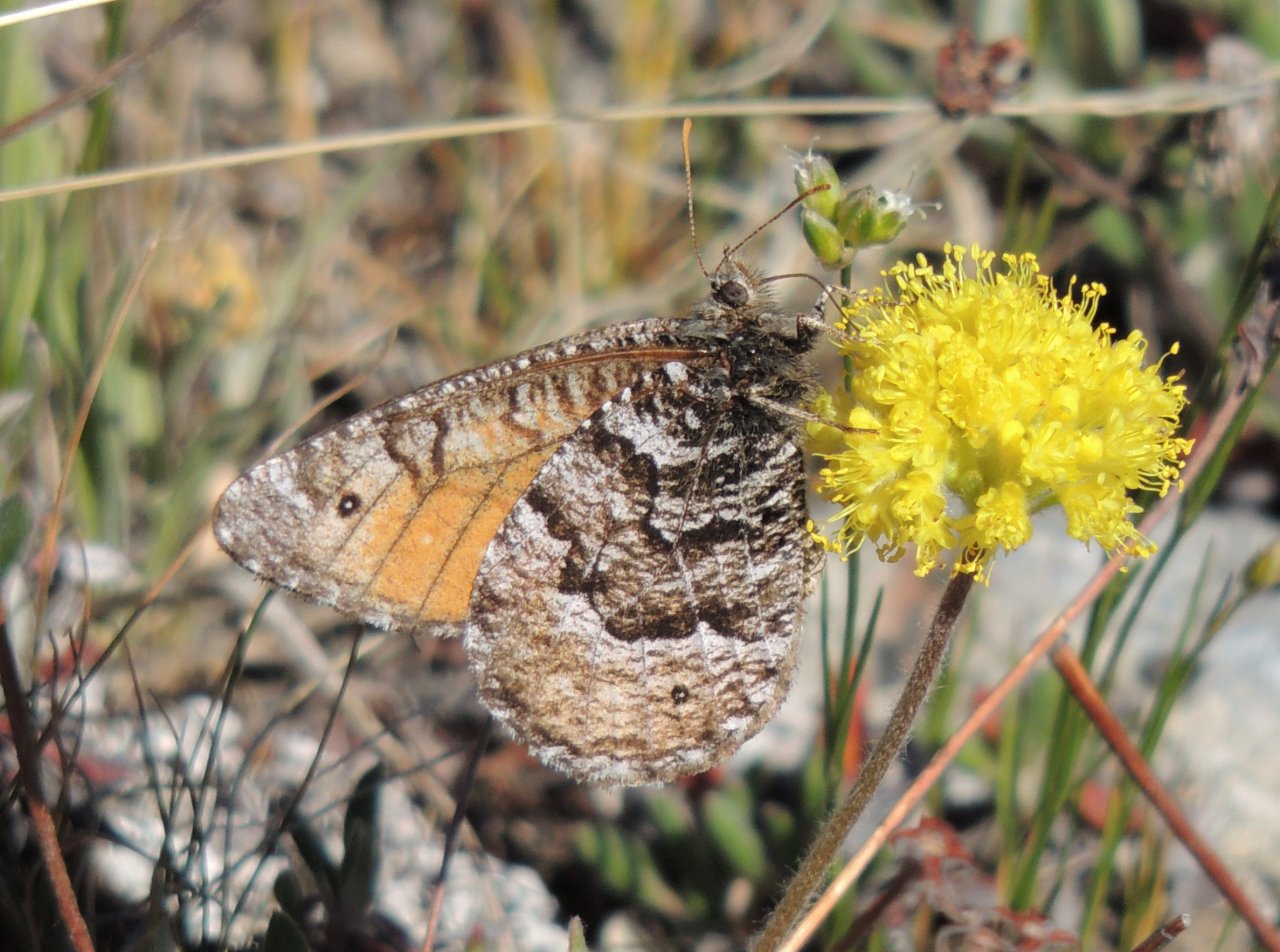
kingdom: Animalia
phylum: Arthropoda
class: Insecta
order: Lepidoptera
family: Nymphalidae
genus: Oeneis
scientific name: Oeneis chryxus
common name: Chryxus Arctic
